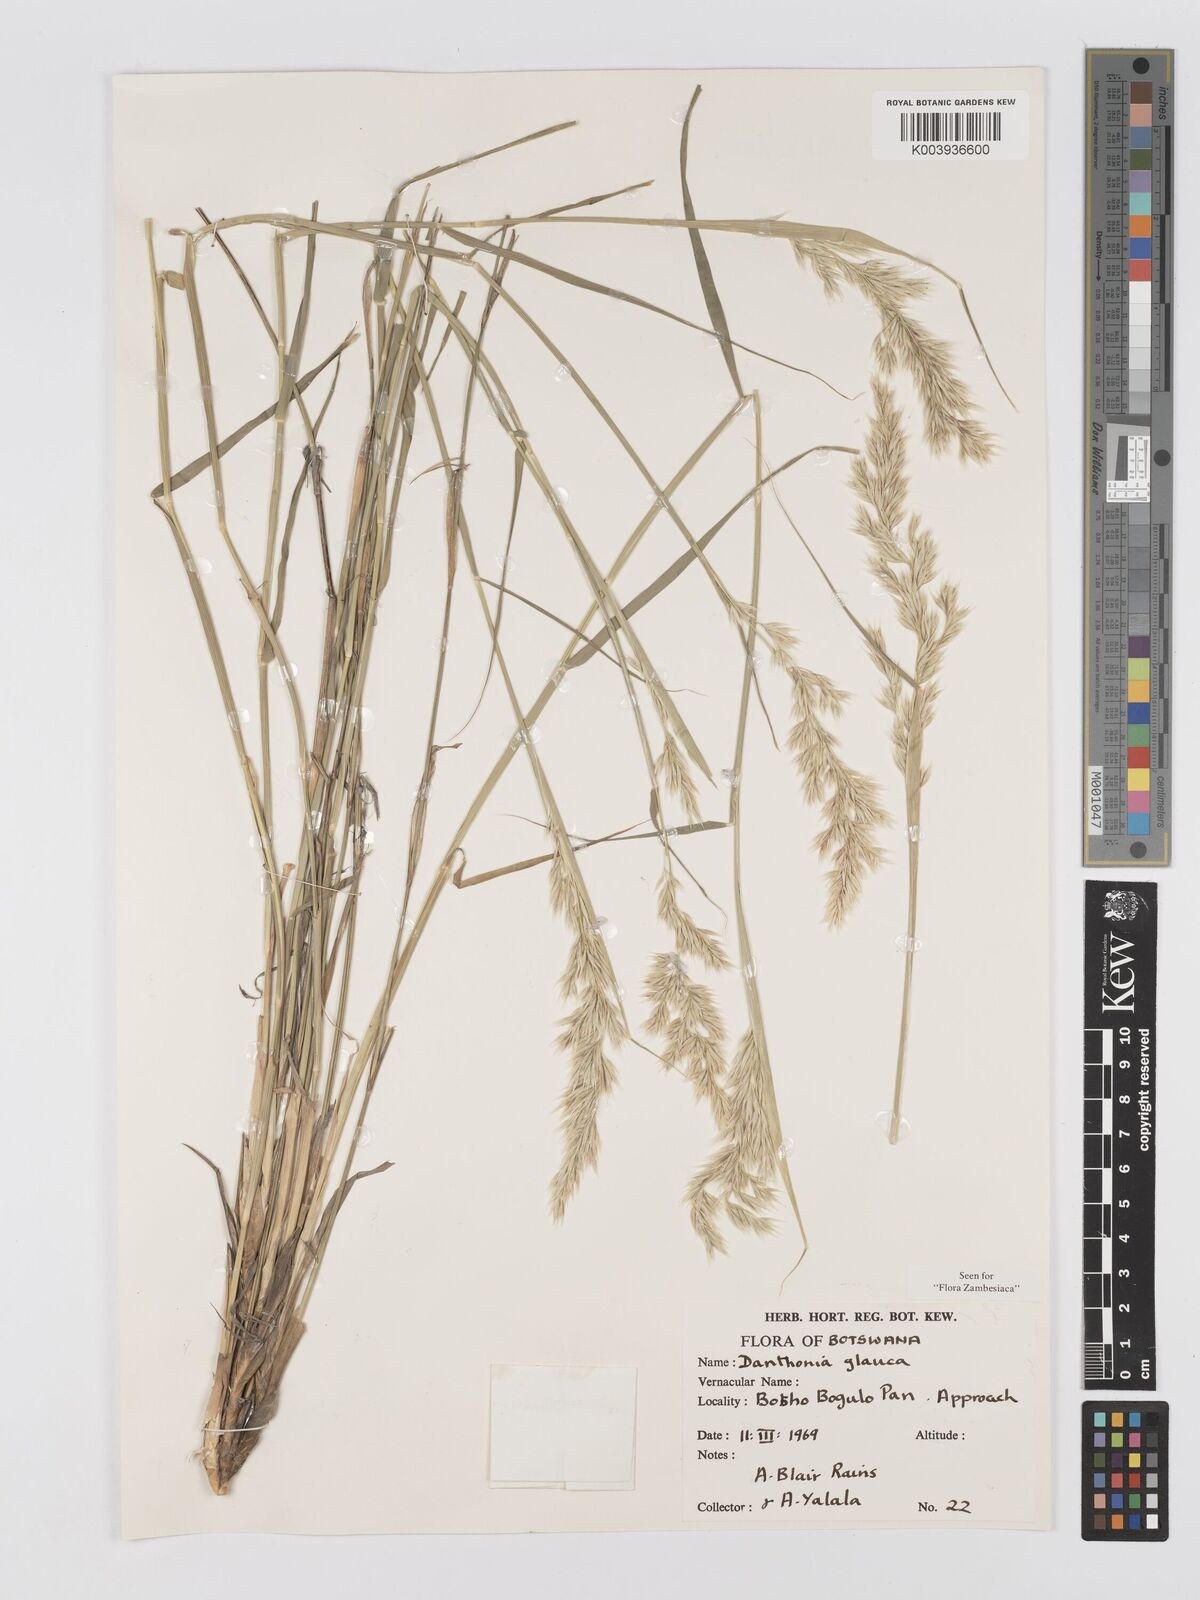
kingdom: Plantae
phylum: Tracheophyta
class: Liliopsida
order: Poales
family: Poaceae
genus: Centropodia
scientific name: Centropodia glauca
